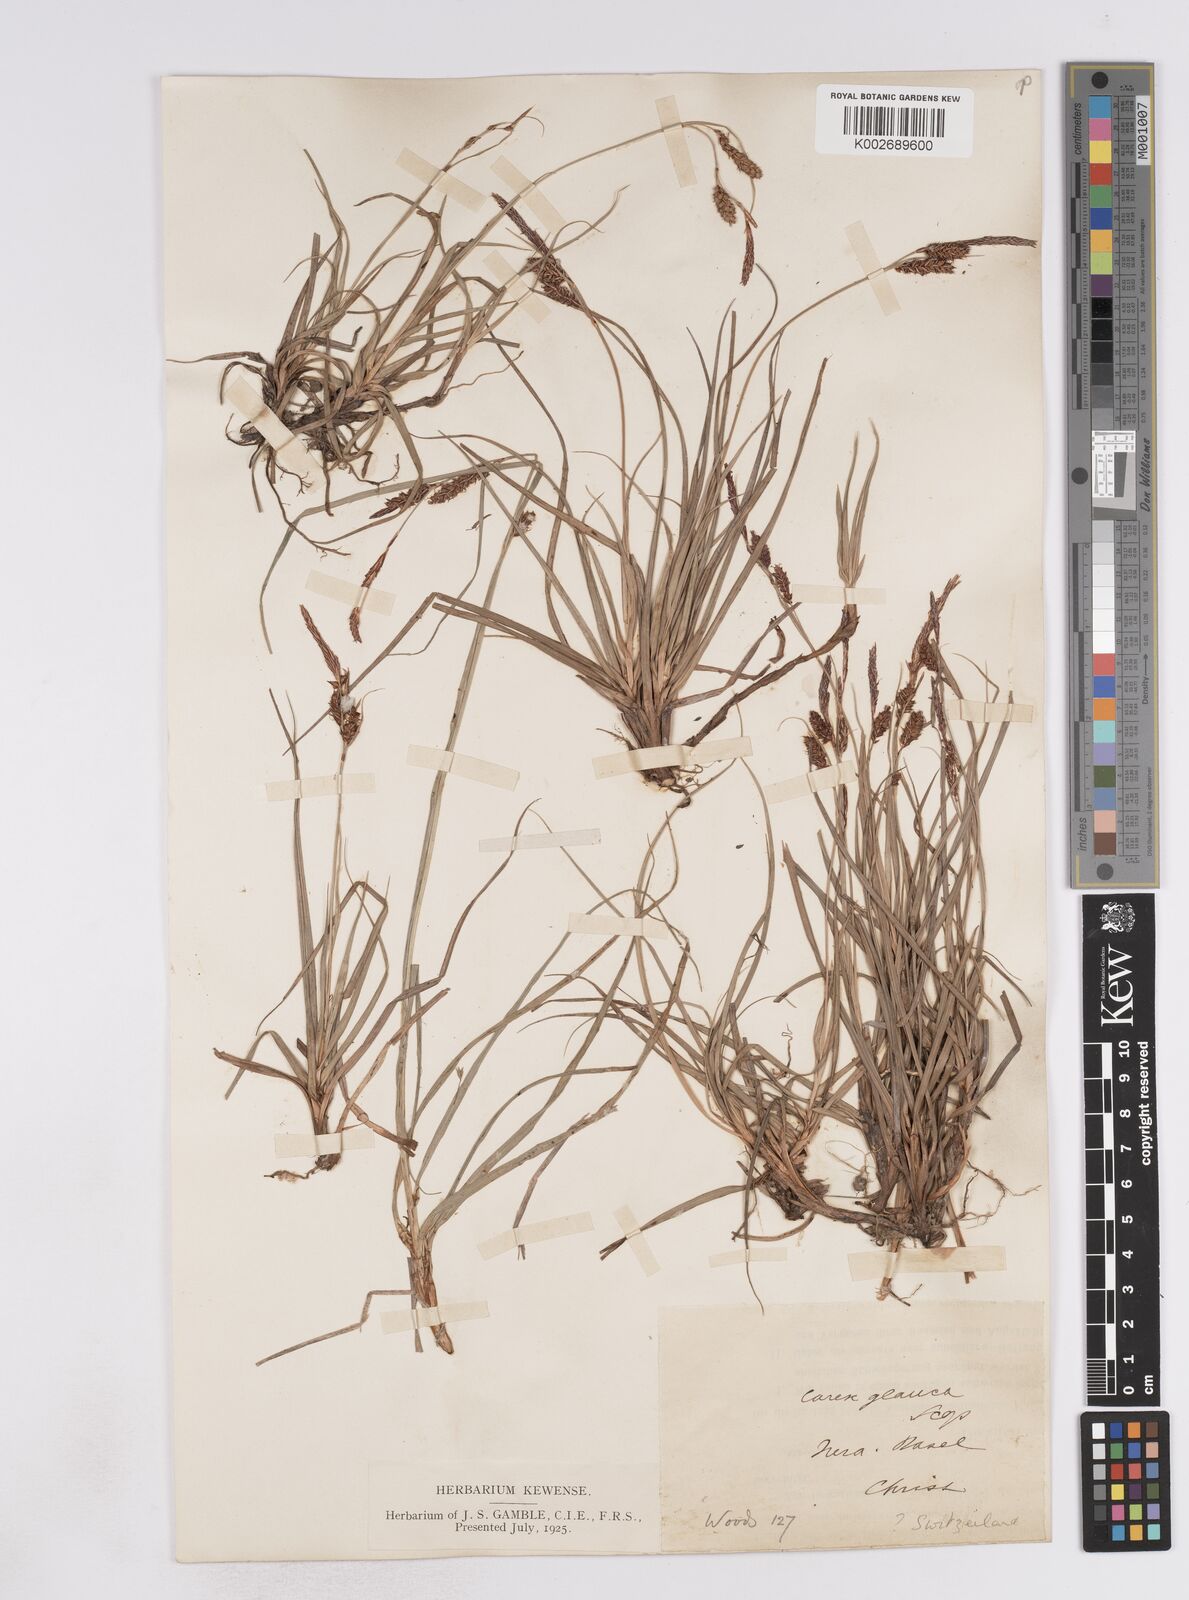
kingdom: Plantae
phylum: Tracheophyta
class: Liliopsida
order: Poales
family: Cyperaceae
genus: Carex
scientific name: Carex flacca
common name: Glaucous sedge
